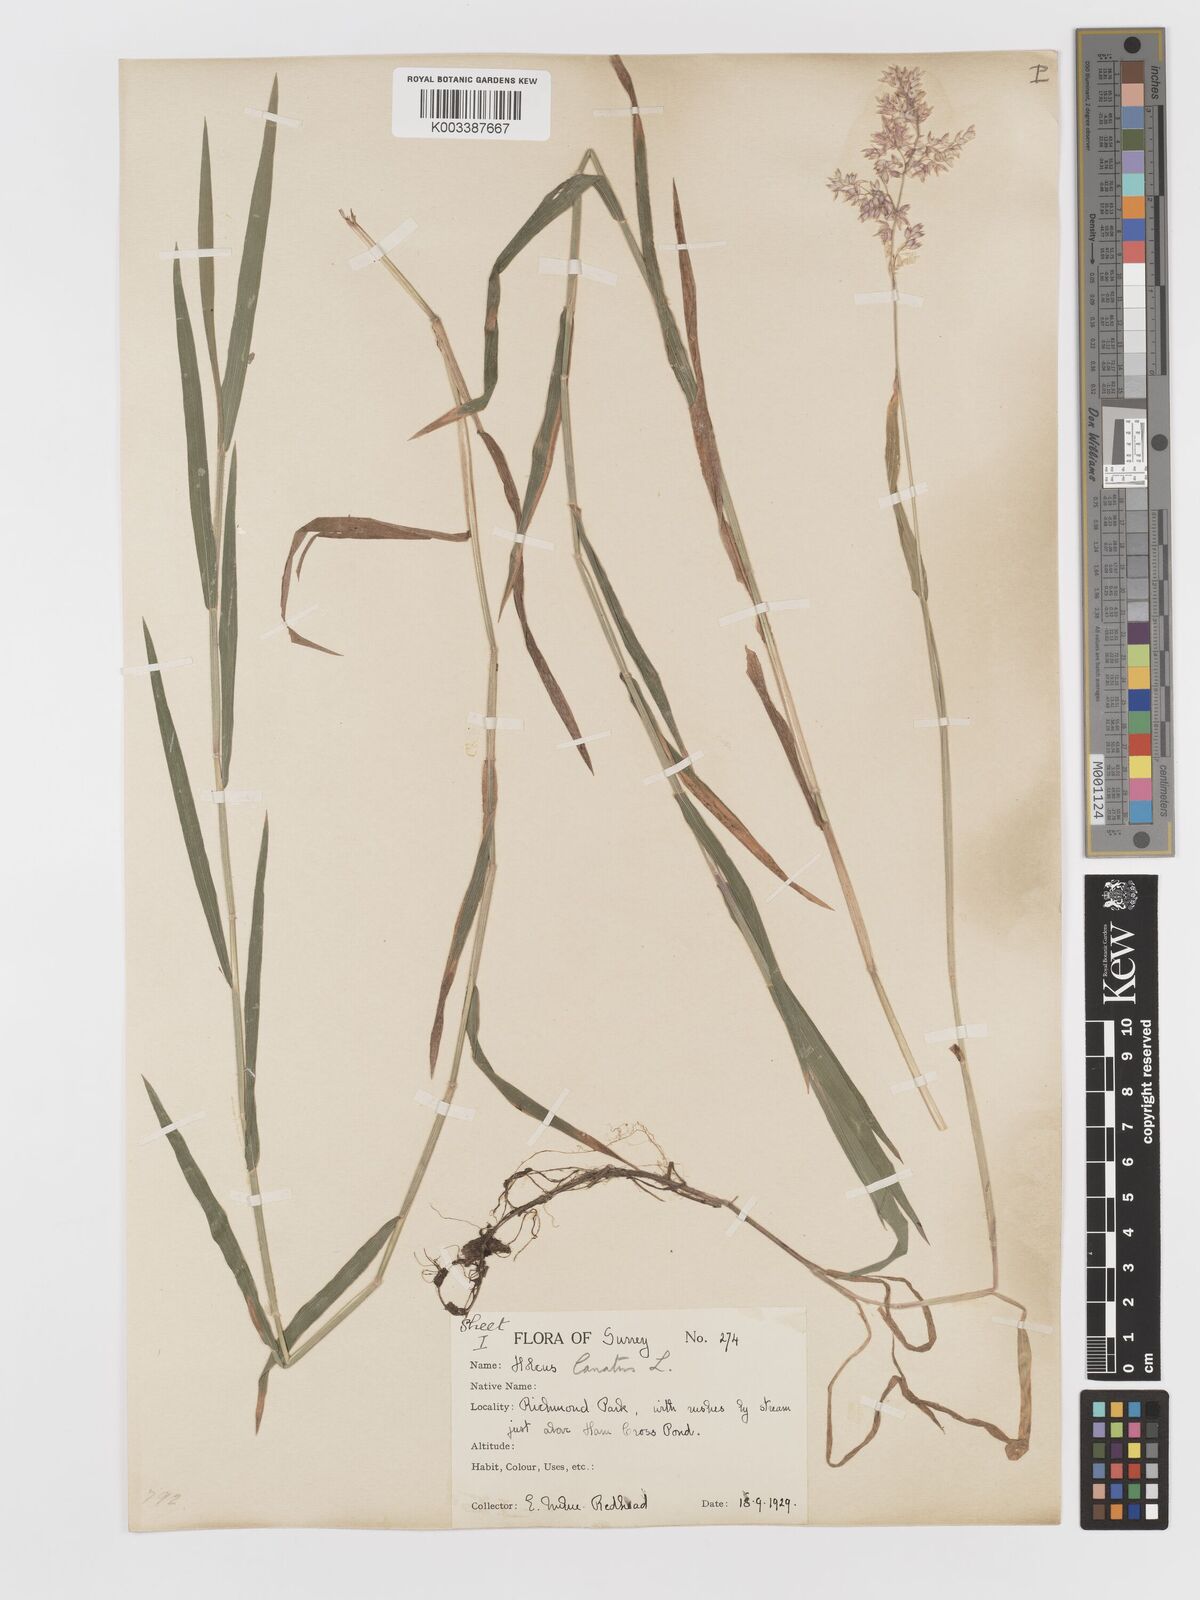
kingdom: Plantae
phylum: Tracheophyta
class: Liliopsida
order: Poales
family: Poaceae
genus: Holcus
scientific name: Holcus lanatus
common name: Yorkshire-fog
